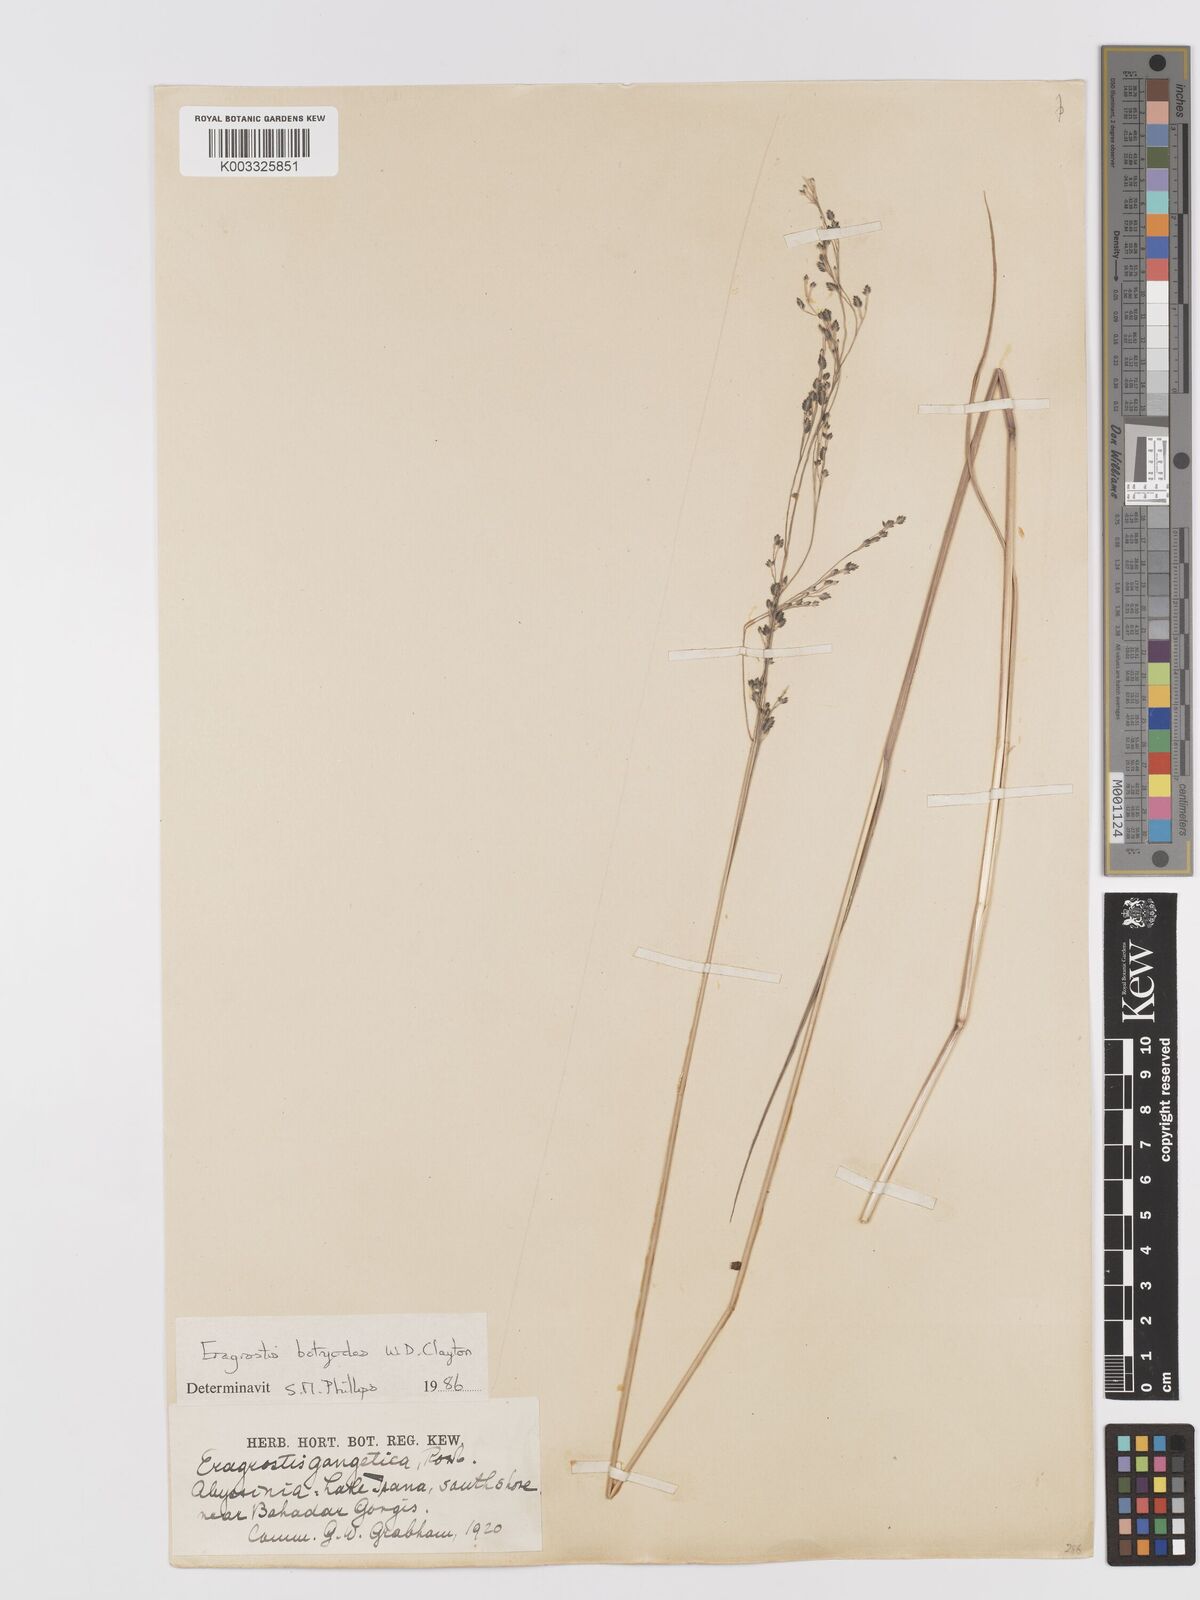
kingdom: Plantae
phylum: Tracheophyta
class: Liliopsida
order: Poales
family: Poaceae
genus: Eragrostis
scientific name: Eragrostis botryodes
